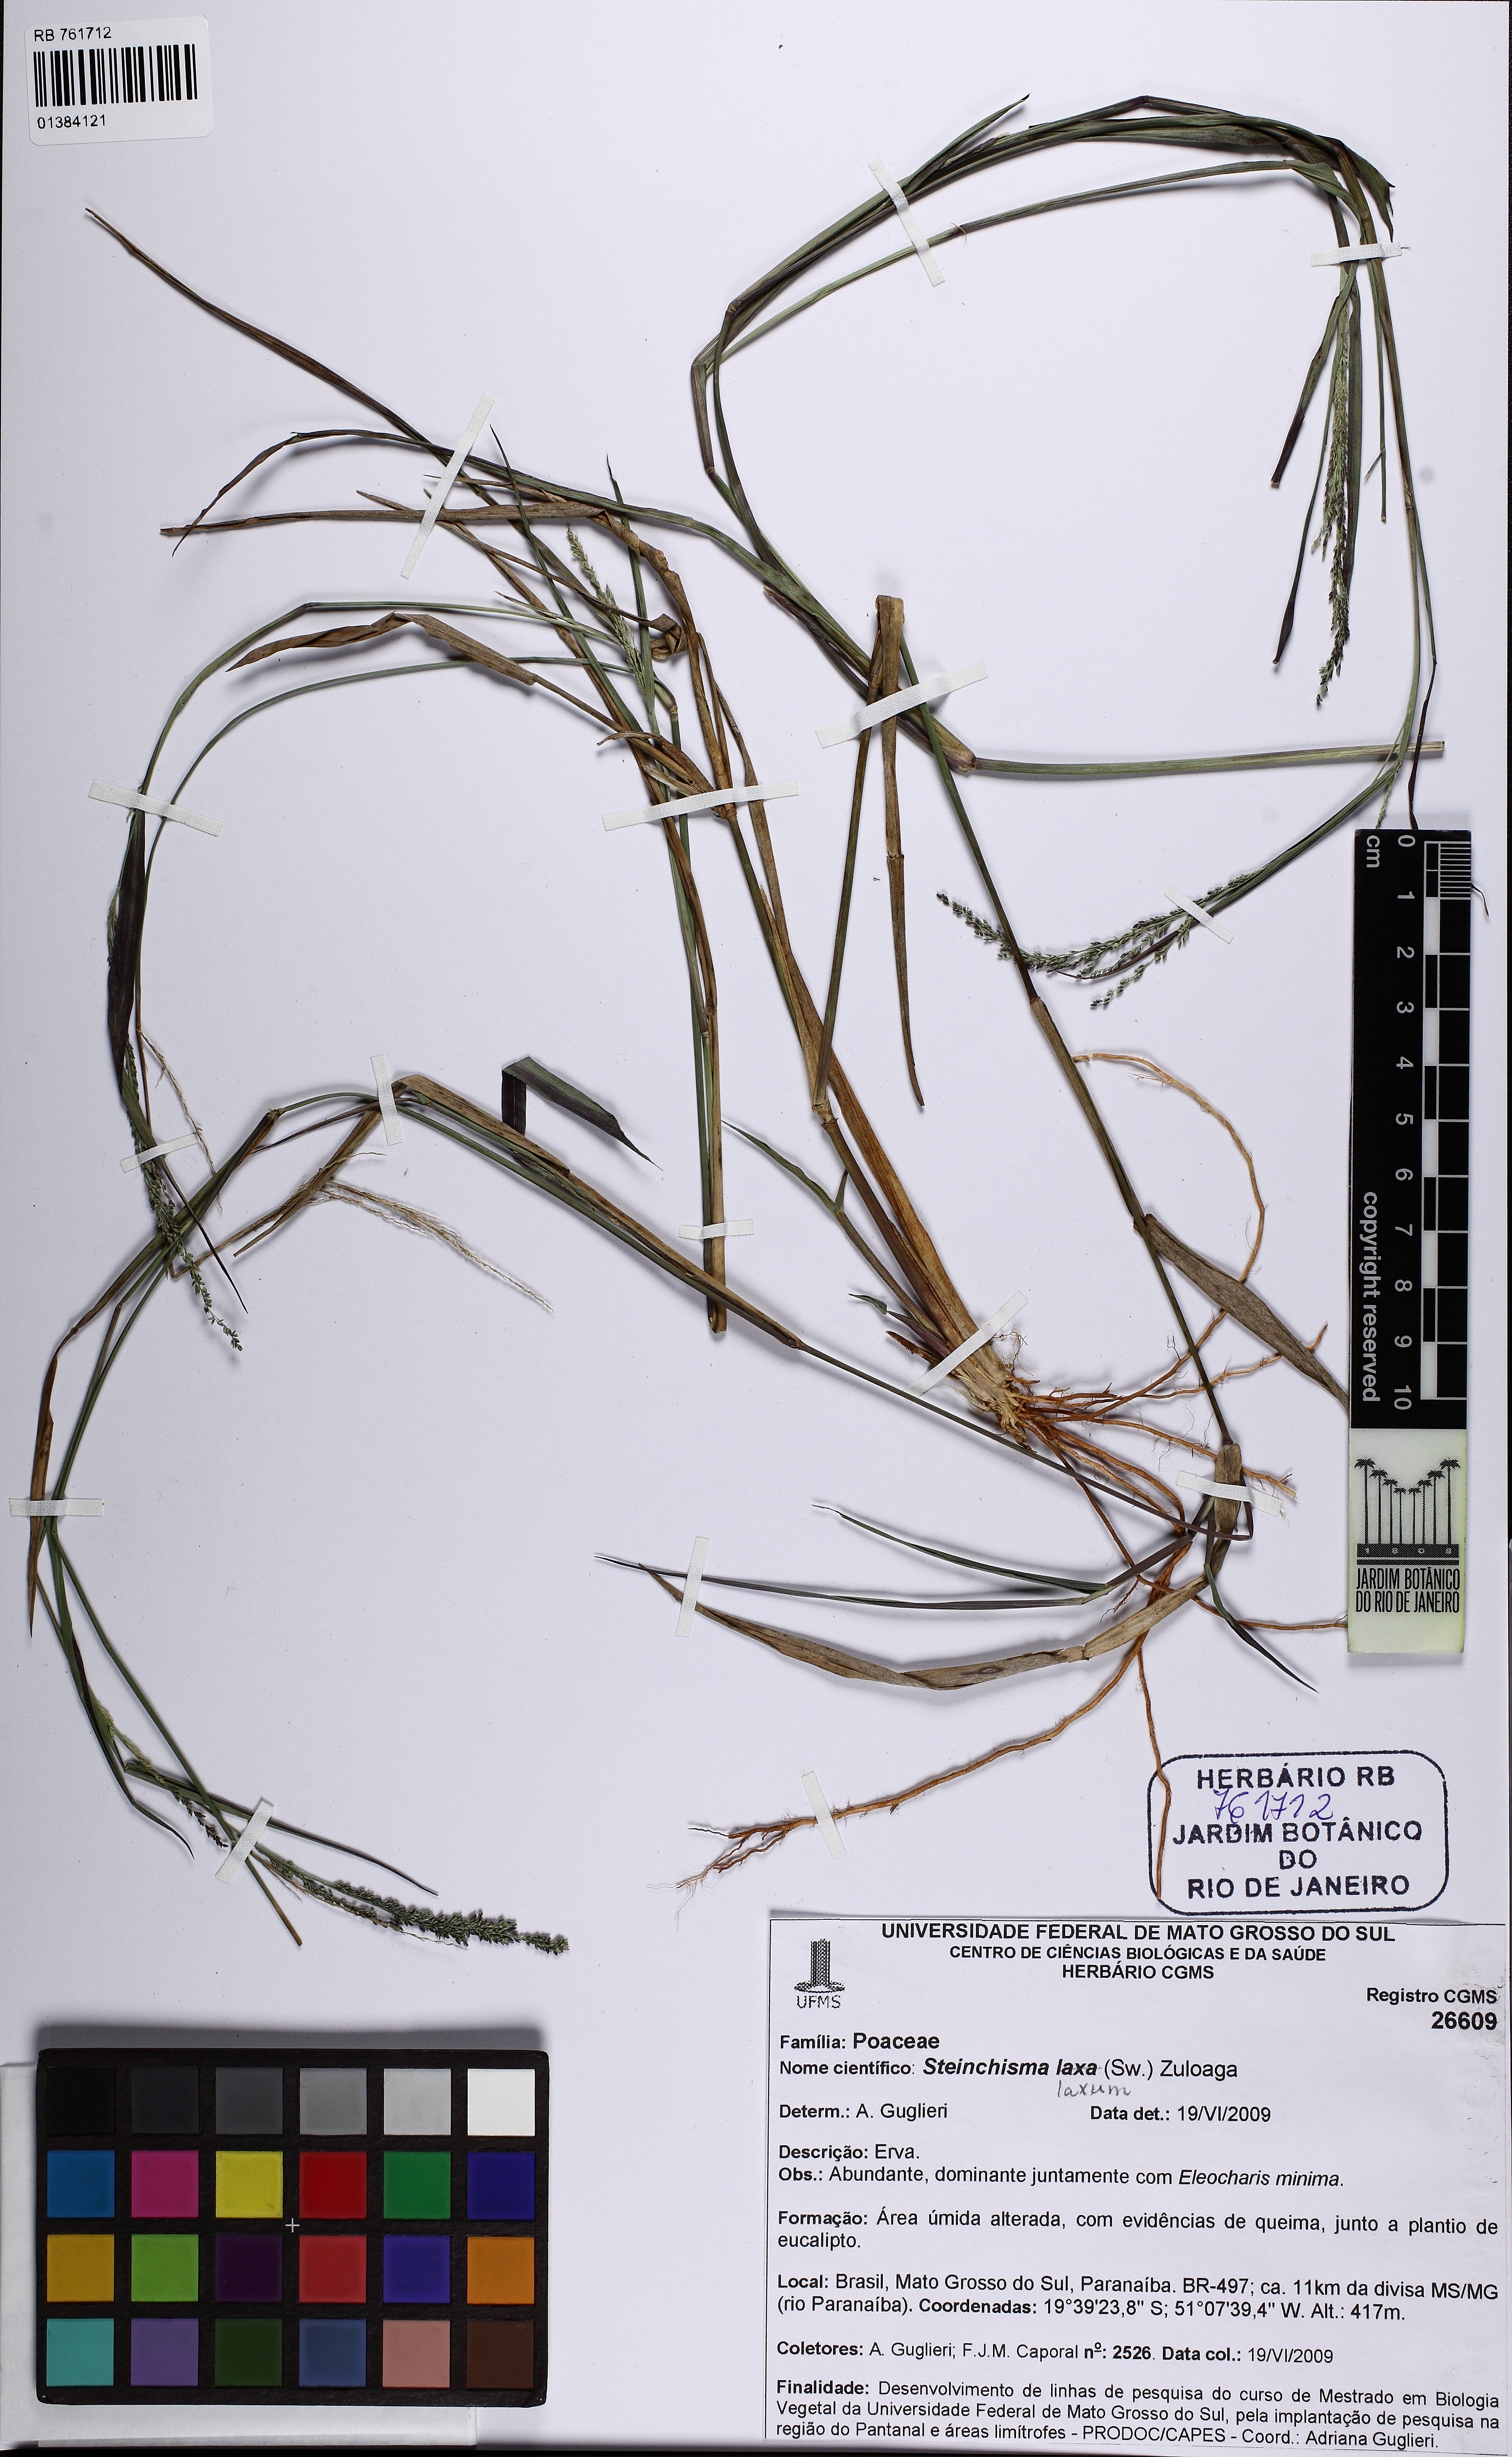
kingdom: Plantae
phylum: Tracheophyta
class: Liliopsida
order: Poales
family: Poaceae
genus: Steinchisma
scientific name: Steinchisma laxum
